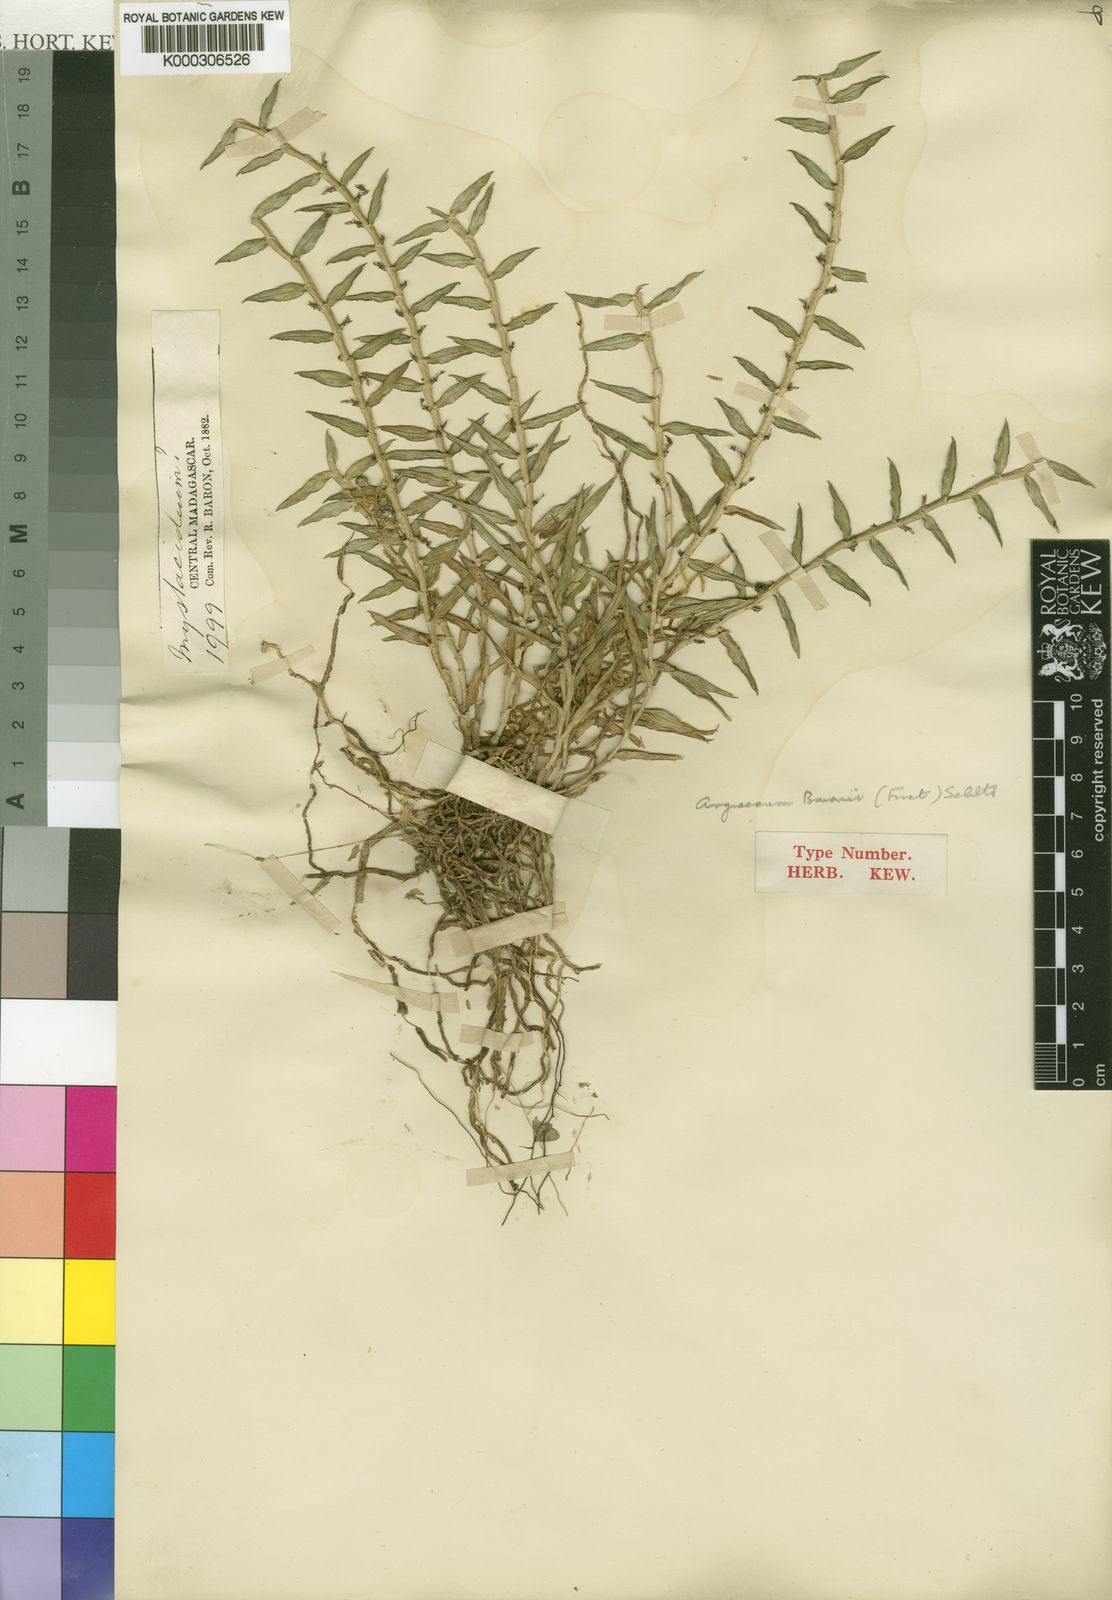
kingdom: Plantae
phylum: Tracheophyta
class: Liliopsida
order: Asparagales
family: Orchidaceae
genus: Angraecum
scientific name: Angraecum baronii
